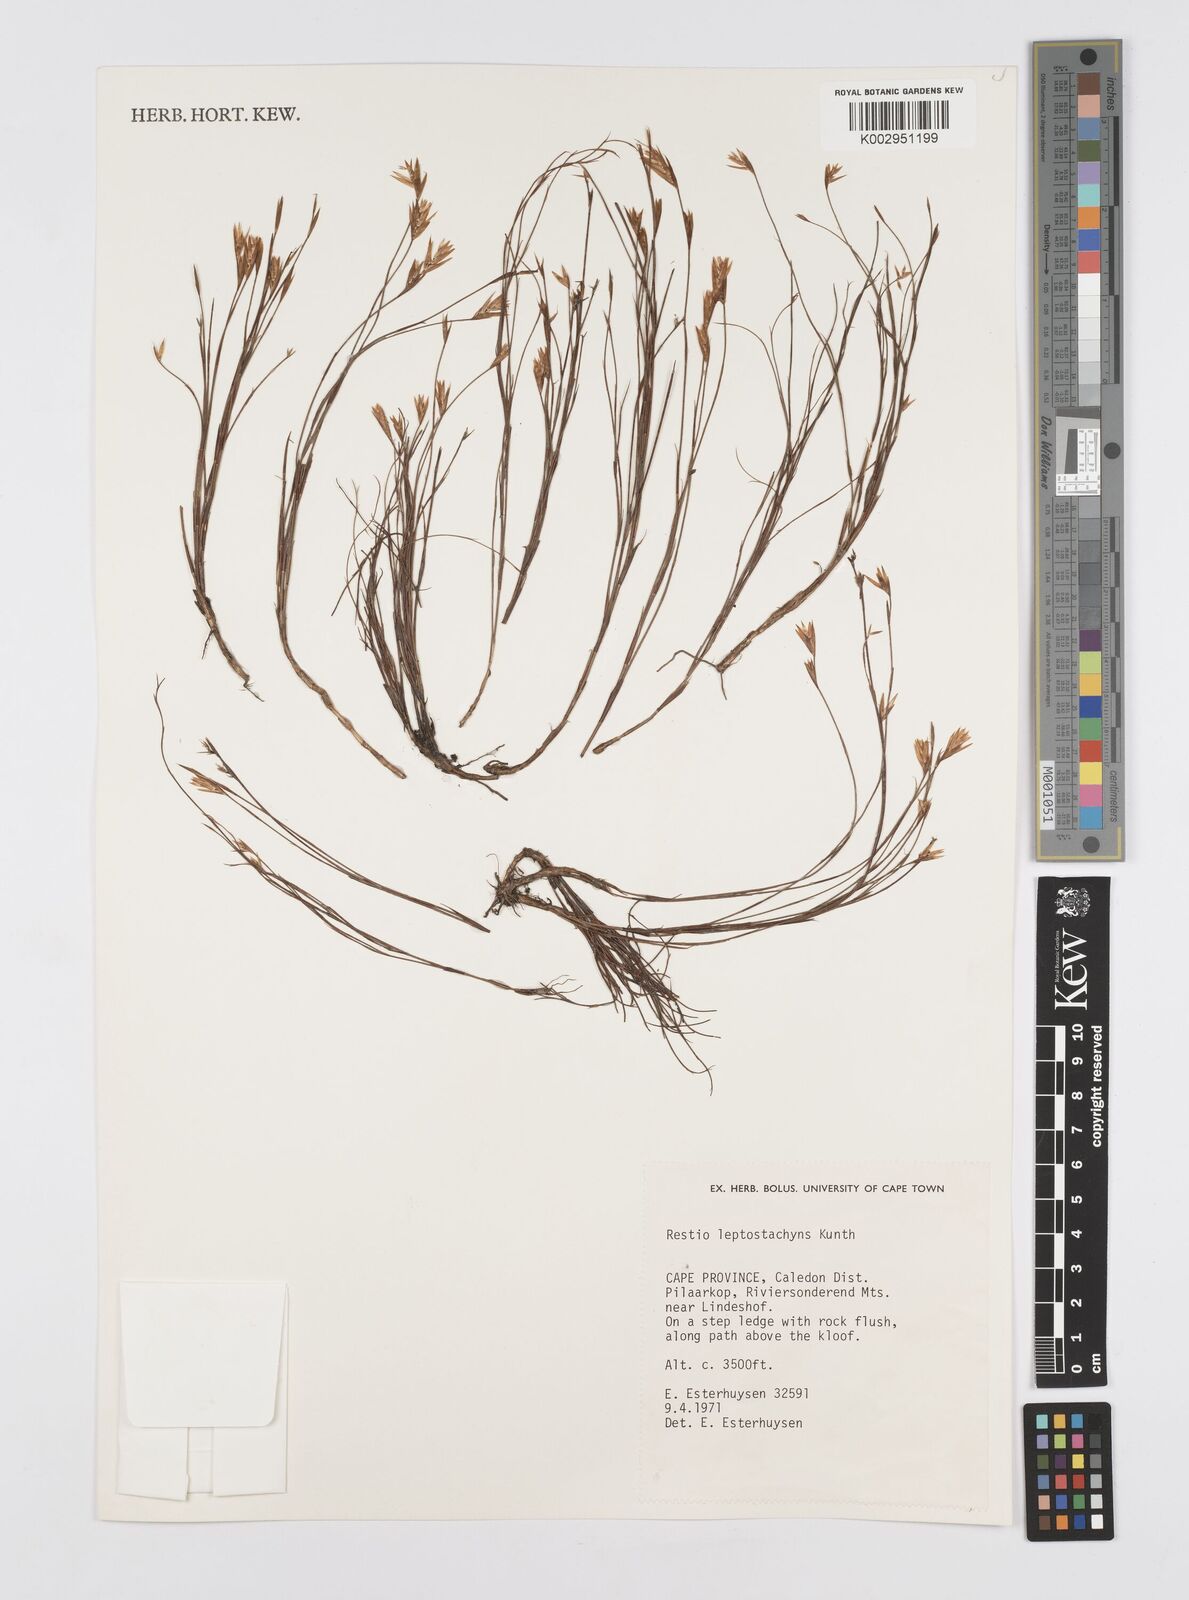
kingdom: Plantae
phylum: Tracheophyta
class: Liliopsida
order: Poales
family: Restionaceae
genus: Restio
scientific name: Restio leptostachyus
